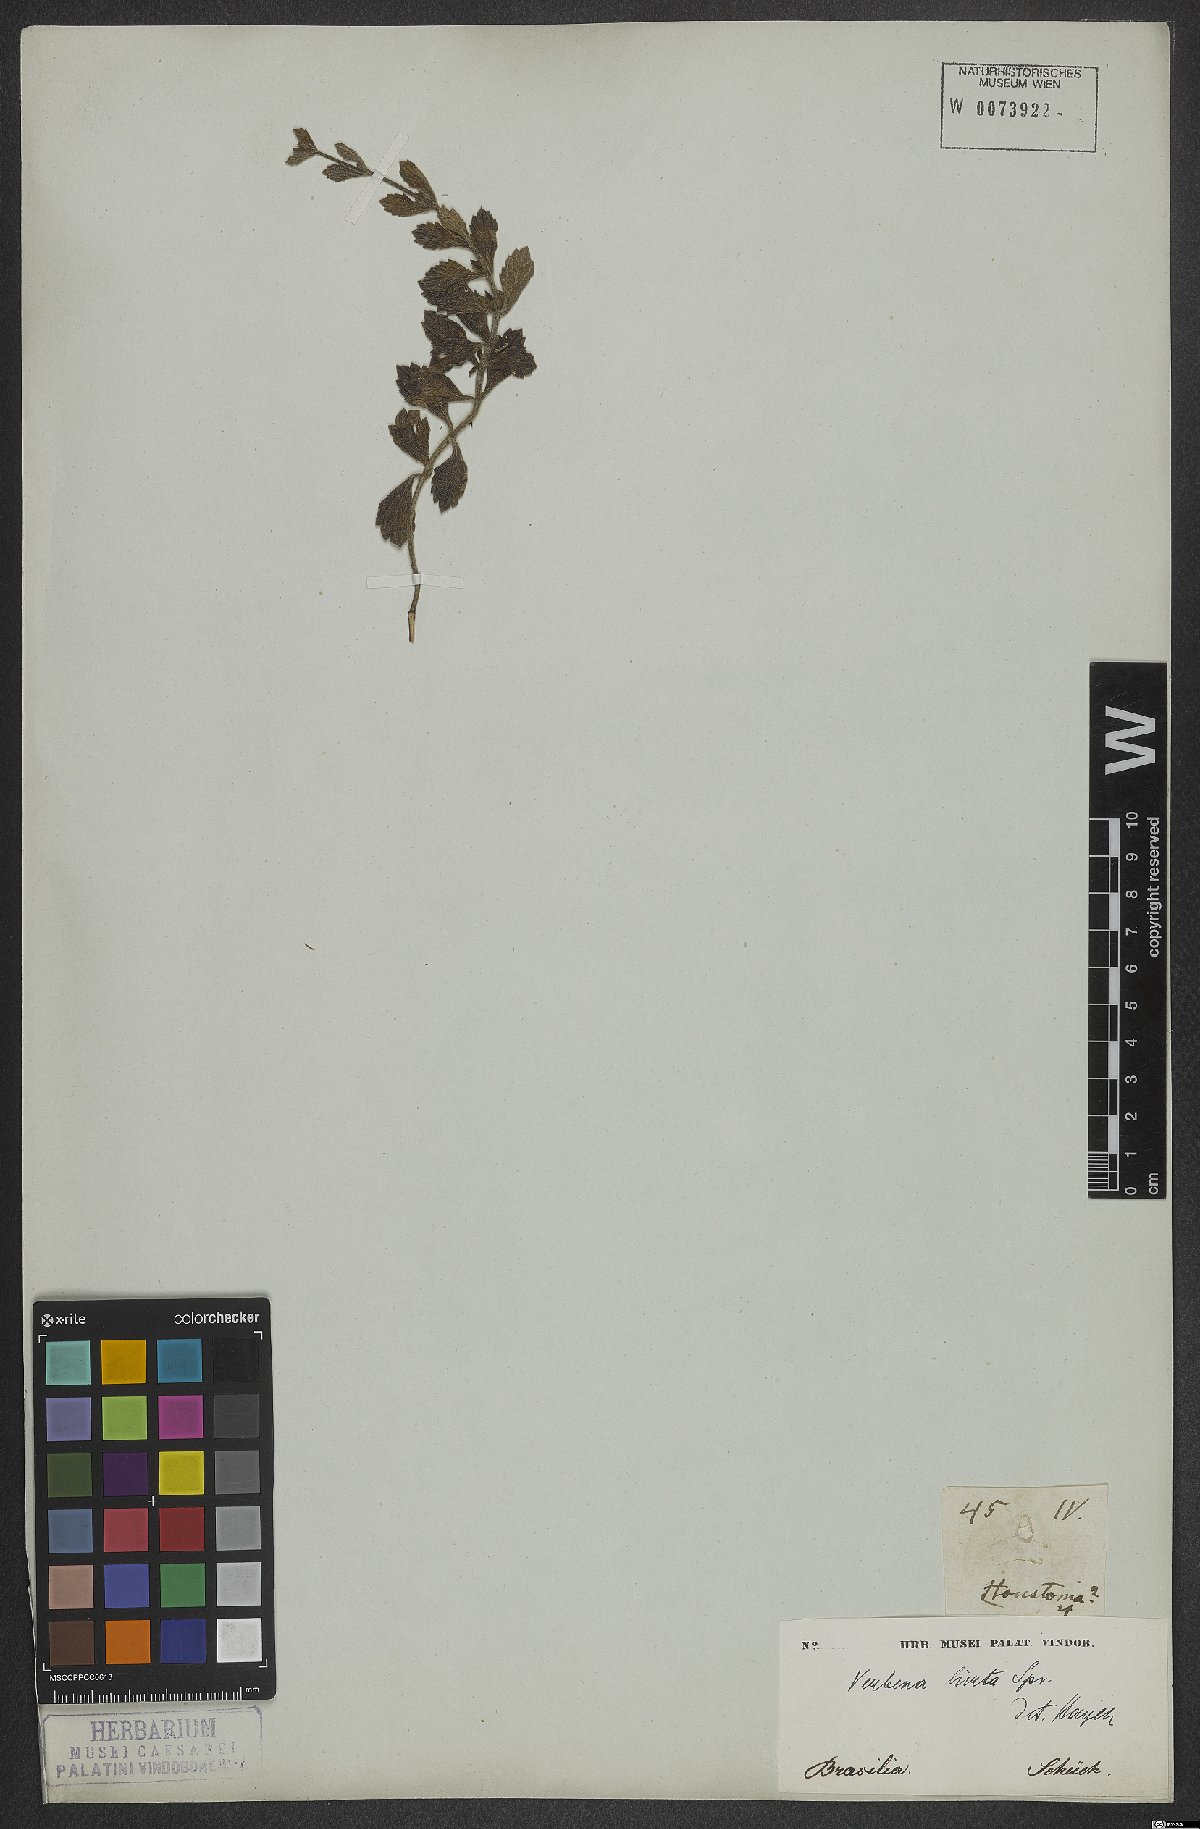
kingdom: Plantae
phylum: Tracheophyta
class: Magnoliopsida
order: Lamiales
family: Verbenaceae
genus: Verbena
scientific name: Verbena hirta
